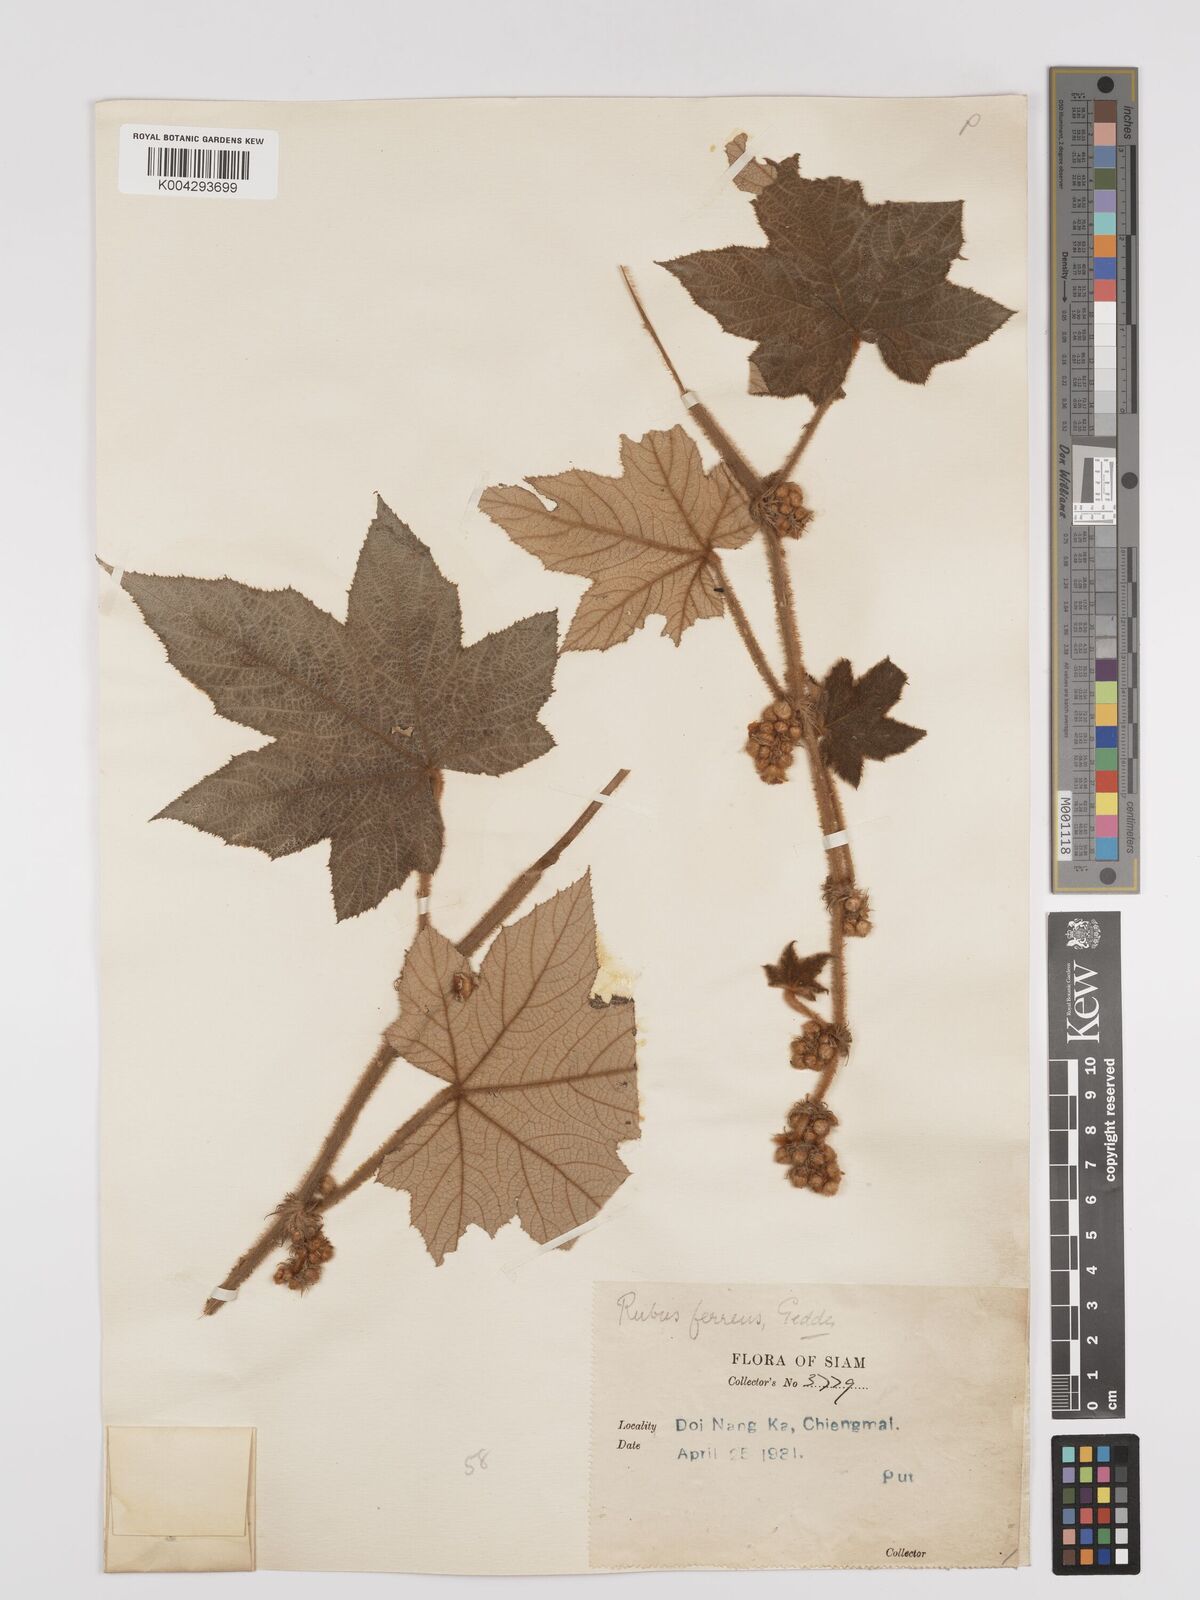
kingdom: Plantae
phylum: Tracheophyta
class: Magnoliopsida
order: Rosales
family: Rosaceae
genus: Rubus
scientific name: Rubus rufus
